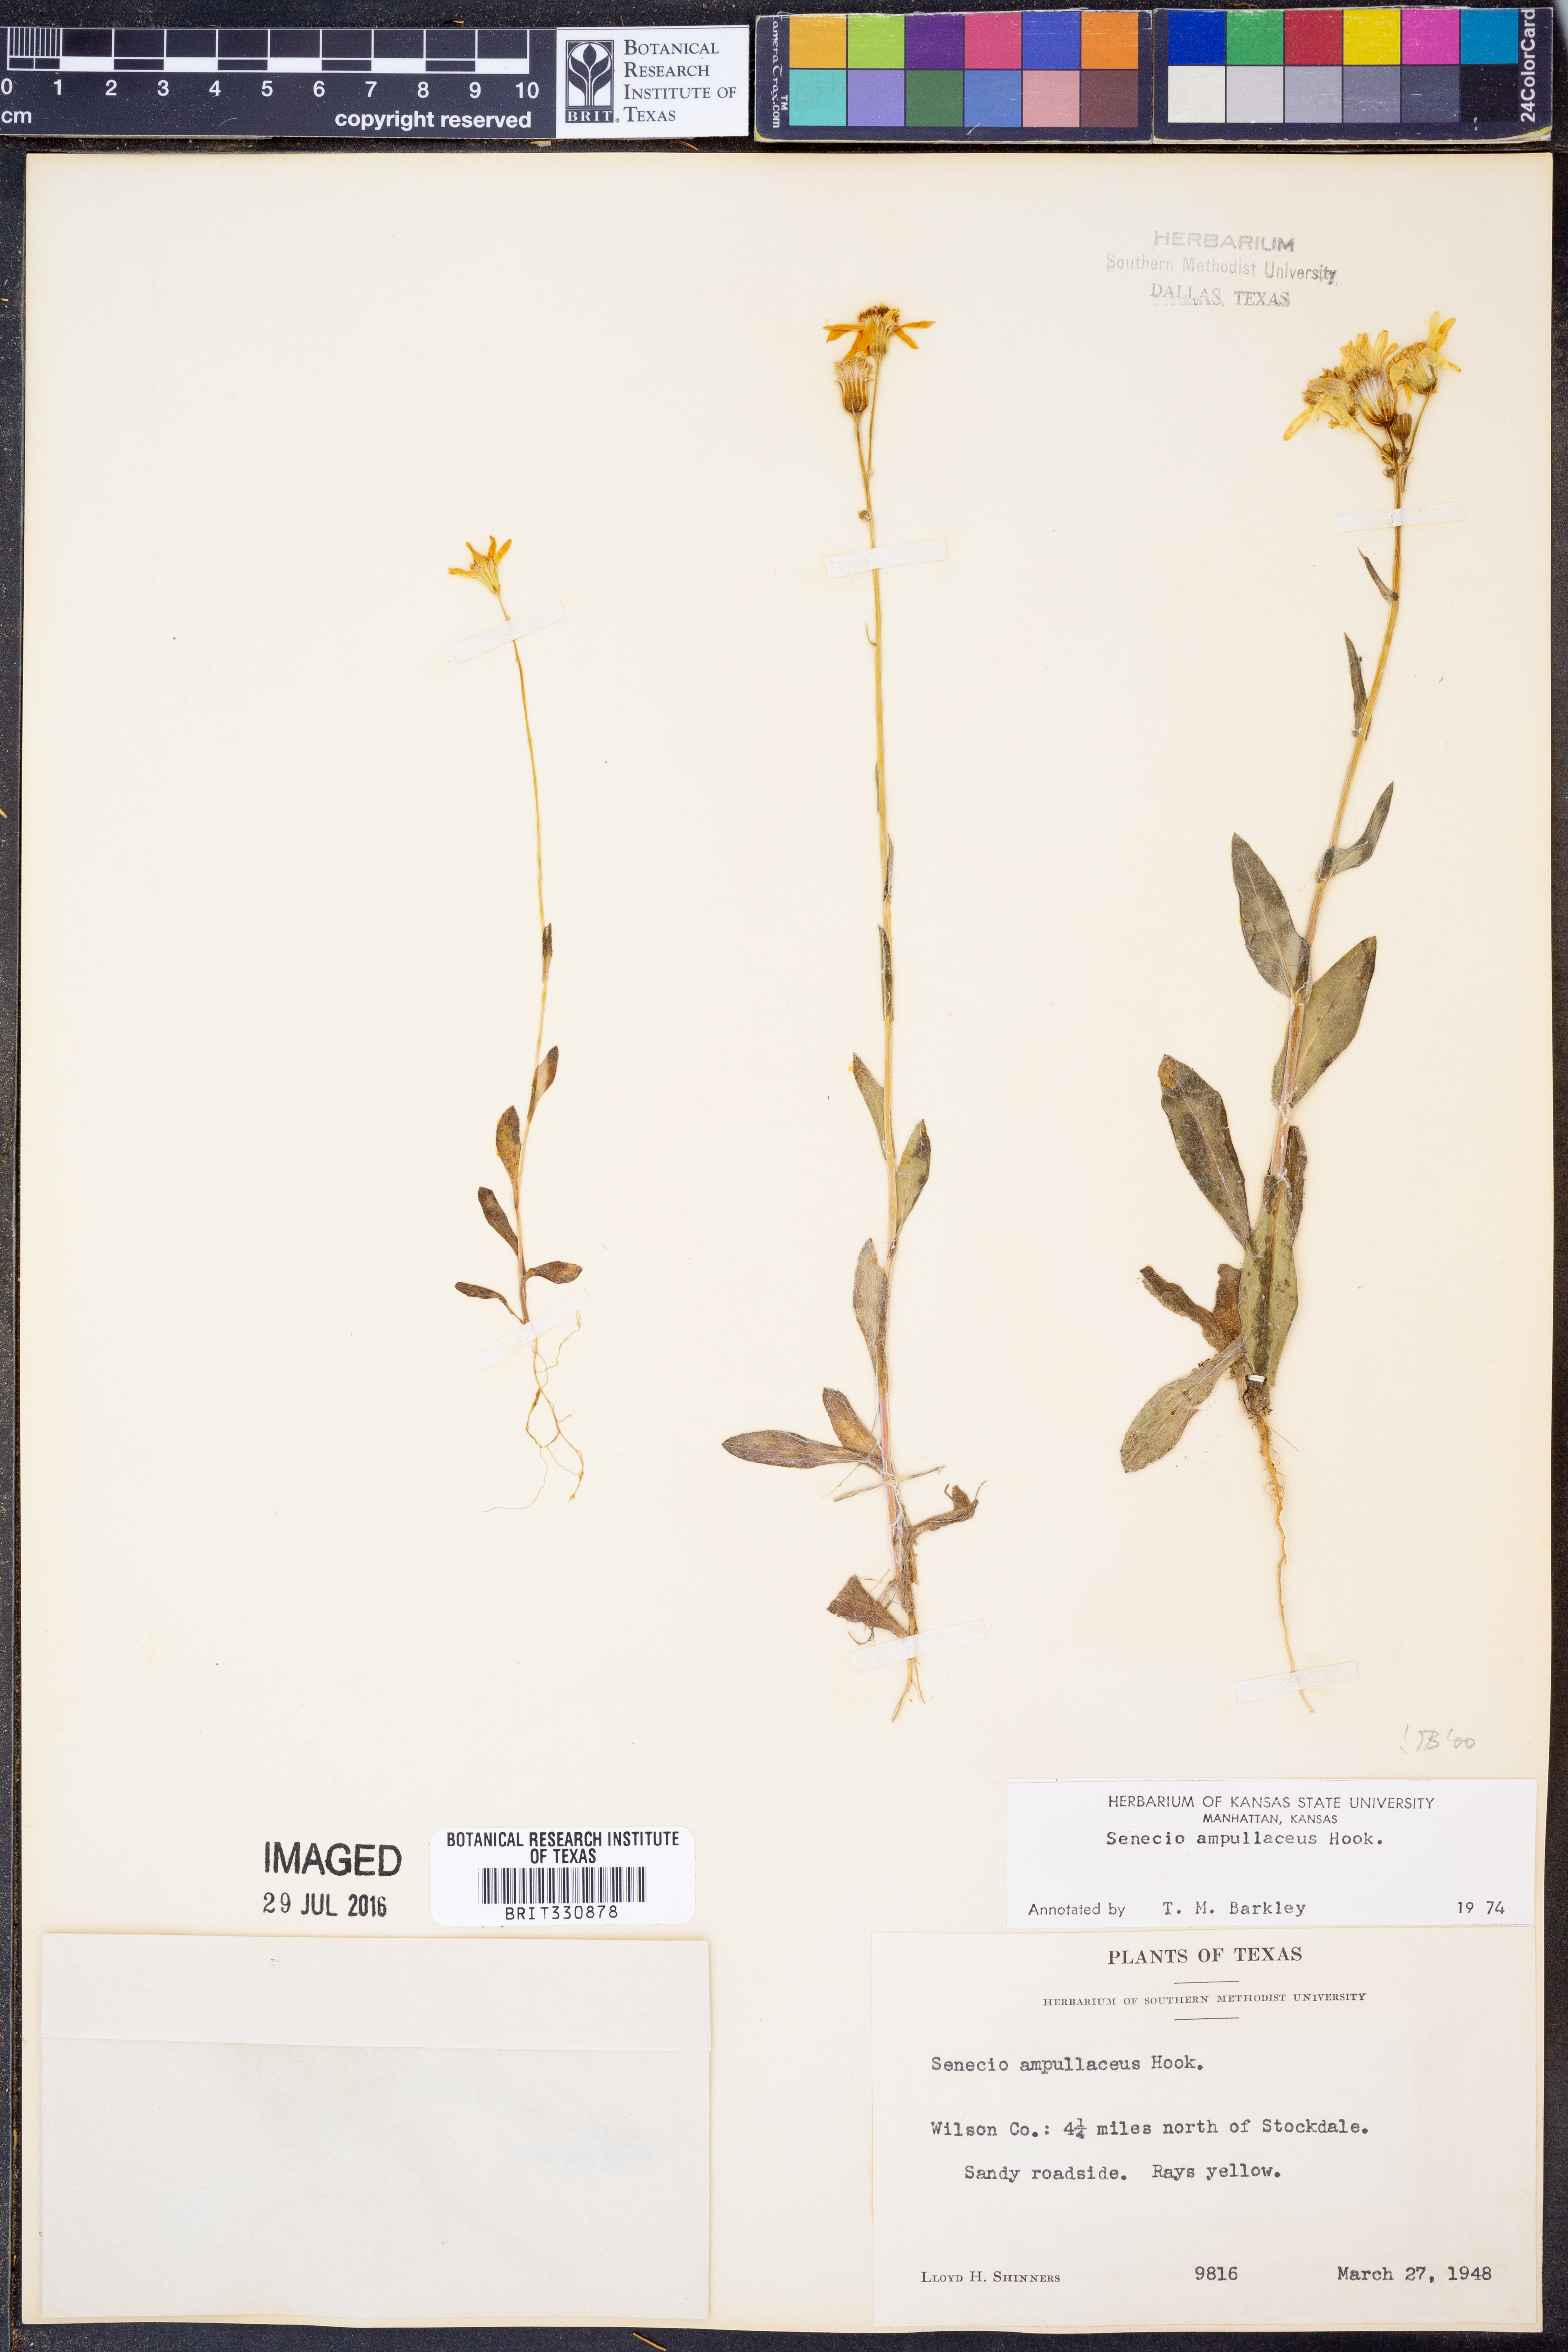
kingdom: Plantae
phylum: Tracheophyta
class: Magnoliopsida
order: Asterales
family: Asteraceae
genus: Senecio
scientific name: Senecio ampullaceus
